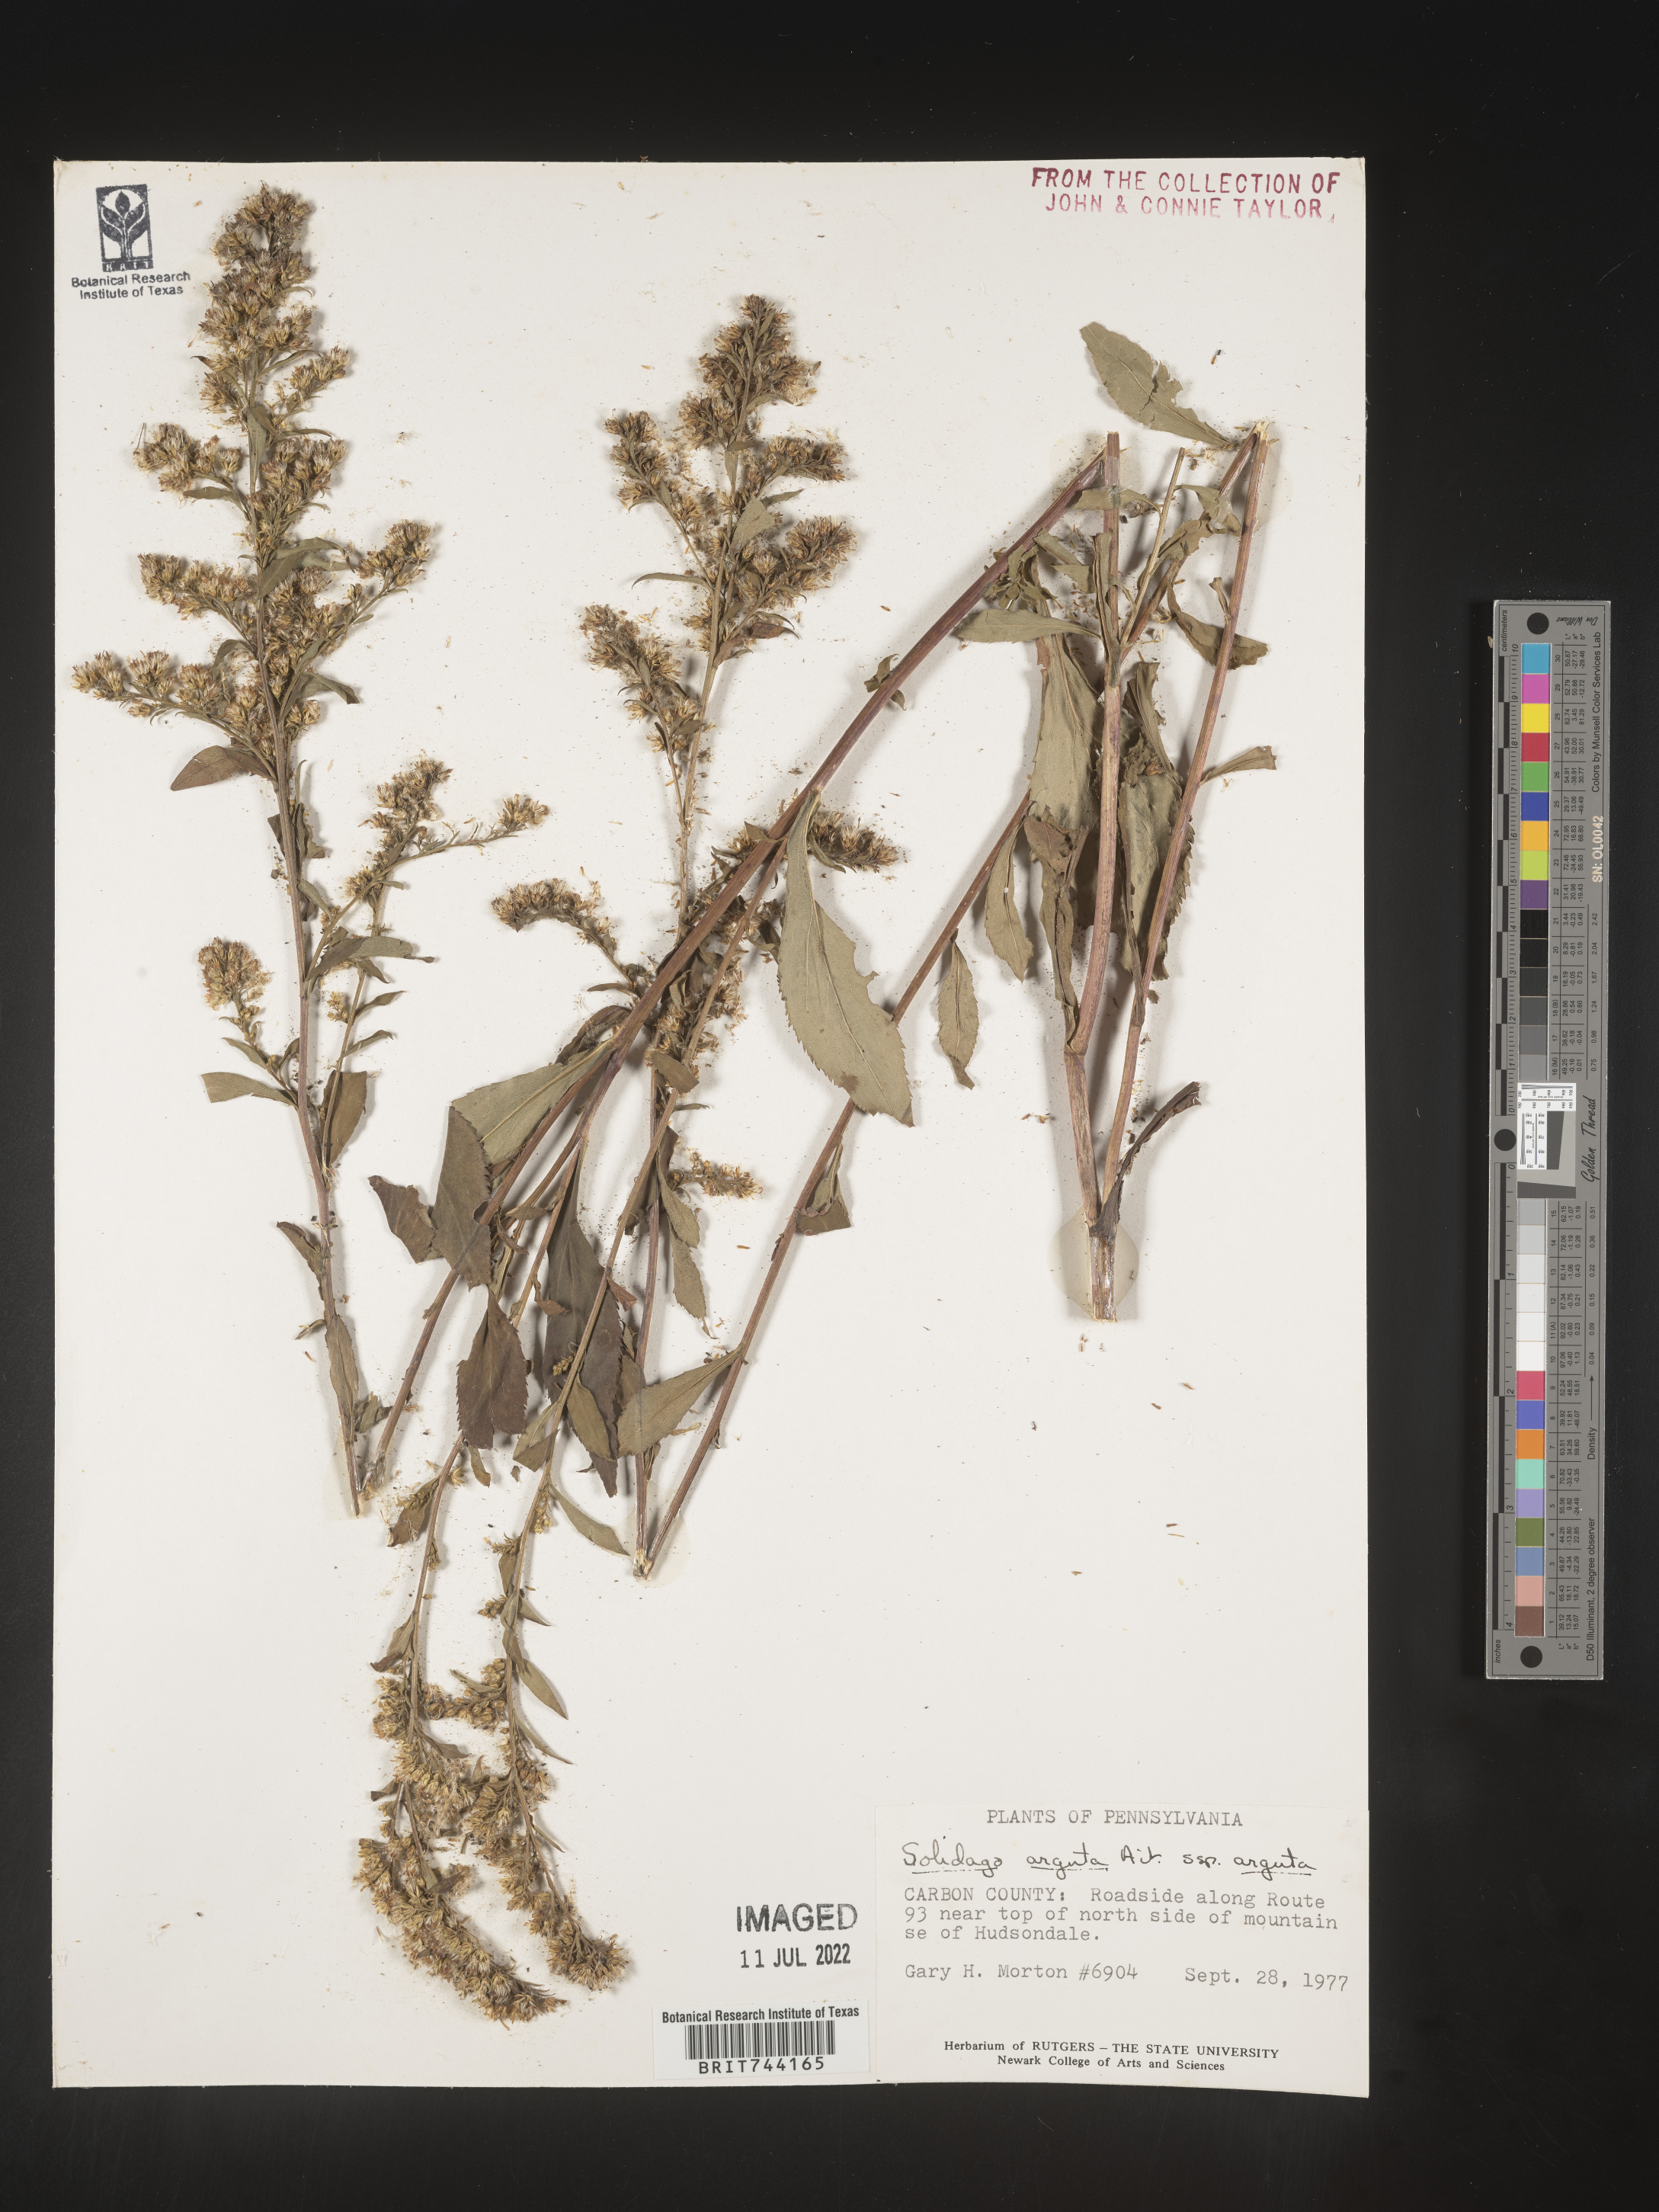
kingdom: Plantae
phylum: Tracheophyta
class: Magnoliopsida
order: Asterales
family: Asteraceae
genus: Solidago
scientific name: Solidago arguta
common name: Atlantic goldenrod
